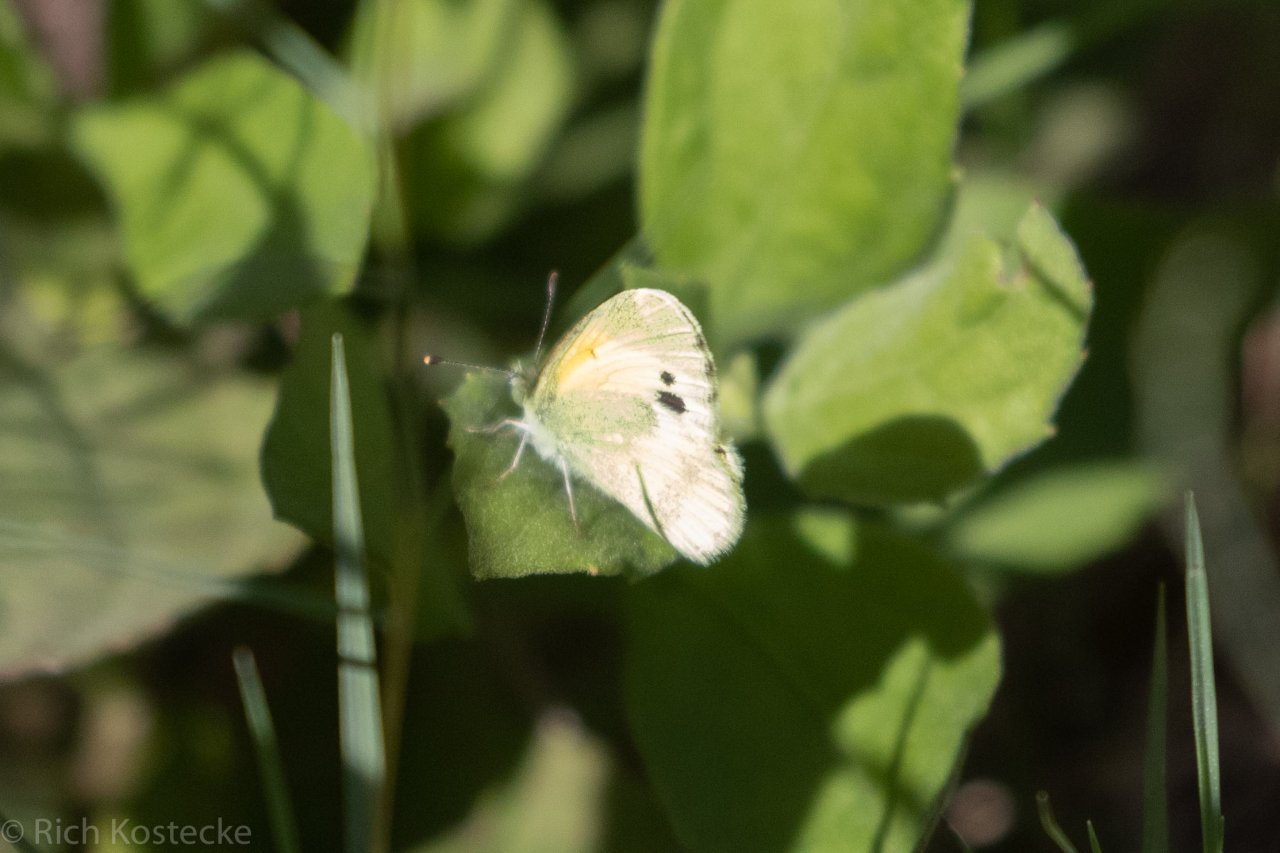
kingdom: Animalia
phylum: Arthropoda
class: Insecta
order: Lepidoptera
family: Pieridae
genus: Nathalis
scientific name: Nathalis iole
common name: Dainty Sulphur
